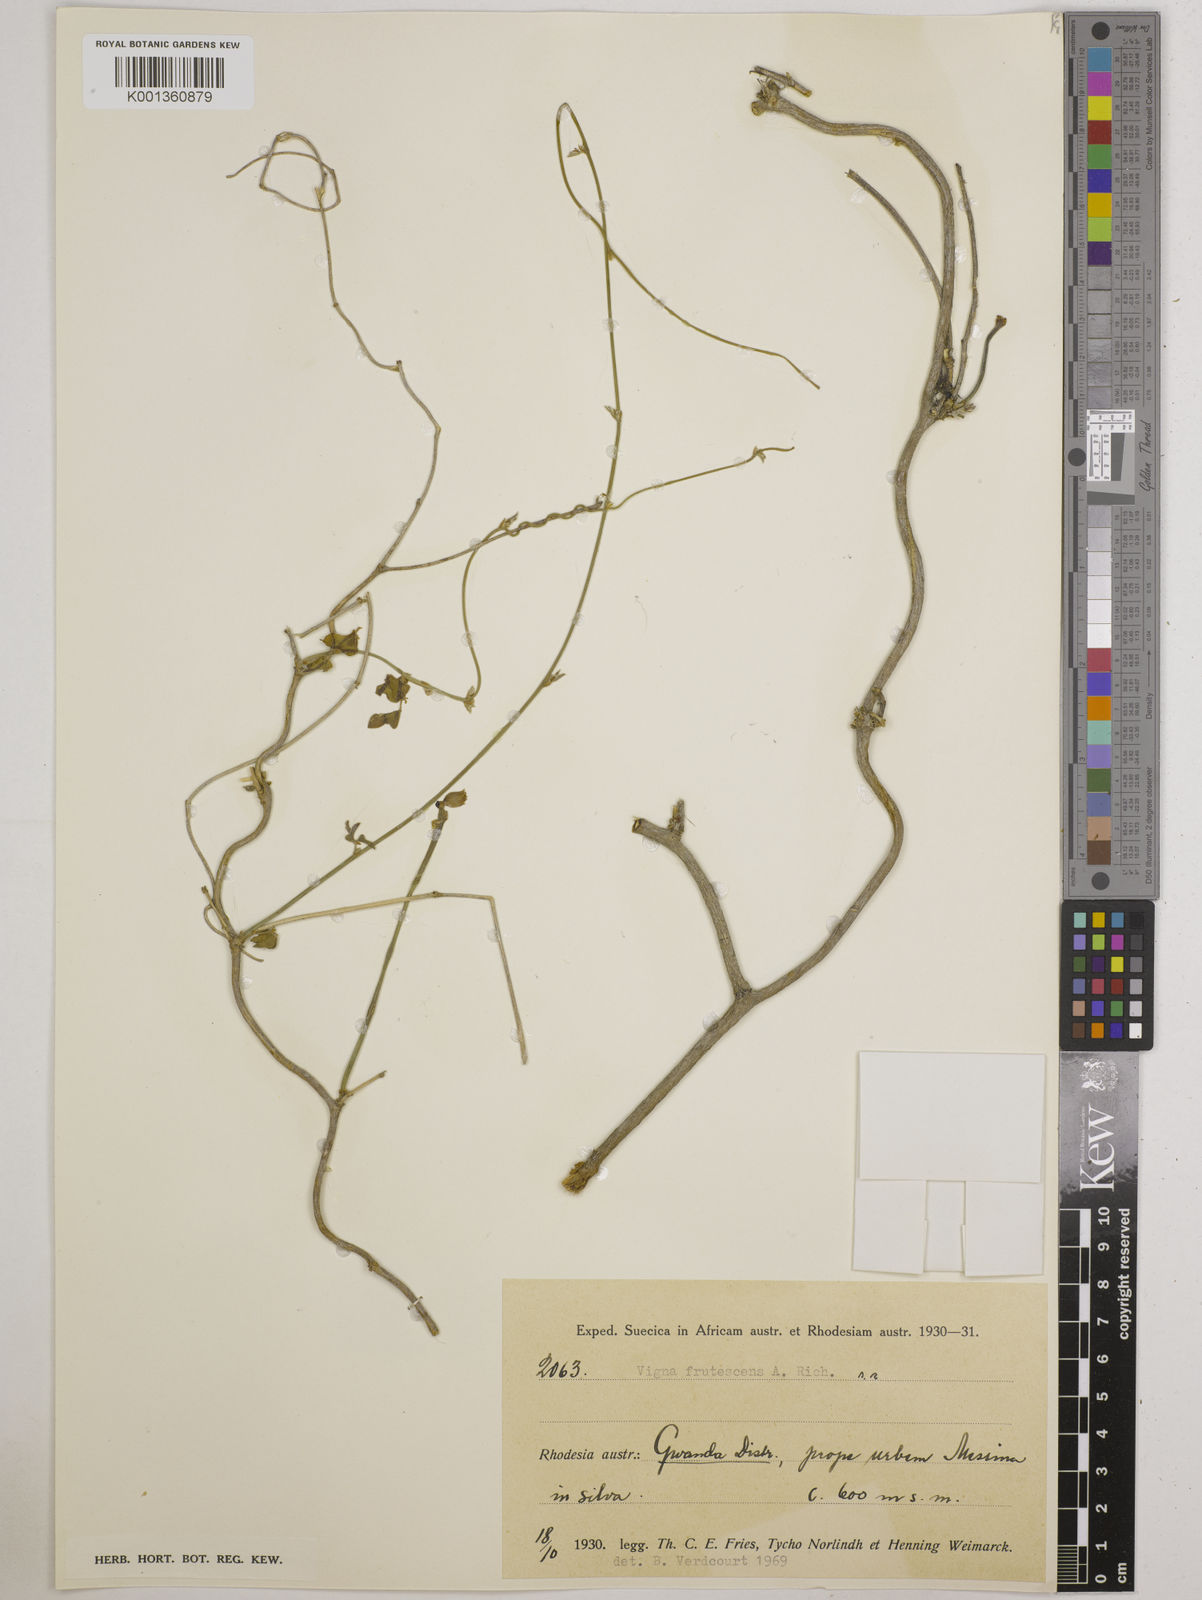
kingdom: Plantae
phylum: Tracheophyta
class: Magnoliopsida
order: Fabales
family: Fabaceae
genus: Vigna
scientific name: Vigna
